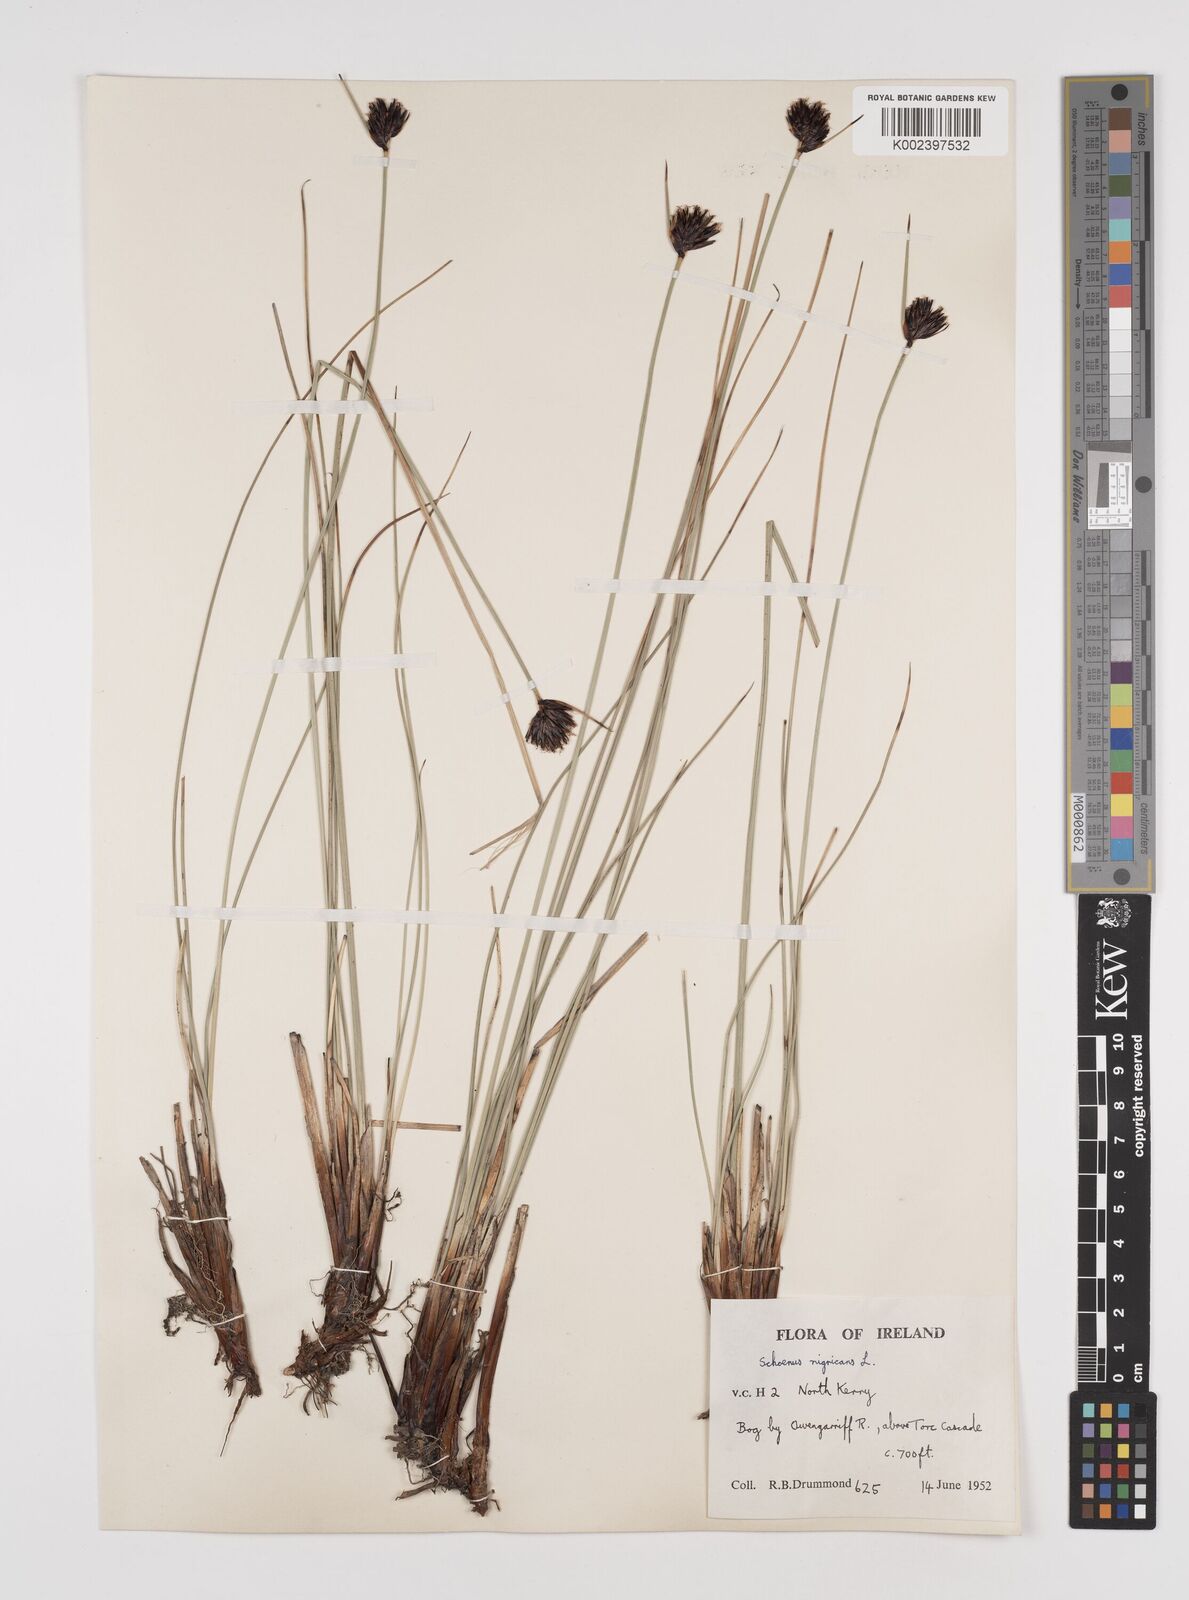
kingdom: Plantae
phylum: Tracheophyta
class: Liliopsida
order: Poales
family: Cyperaceae
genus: Schoenus
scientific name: Schoenus nigricans
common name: Black bog-rush
